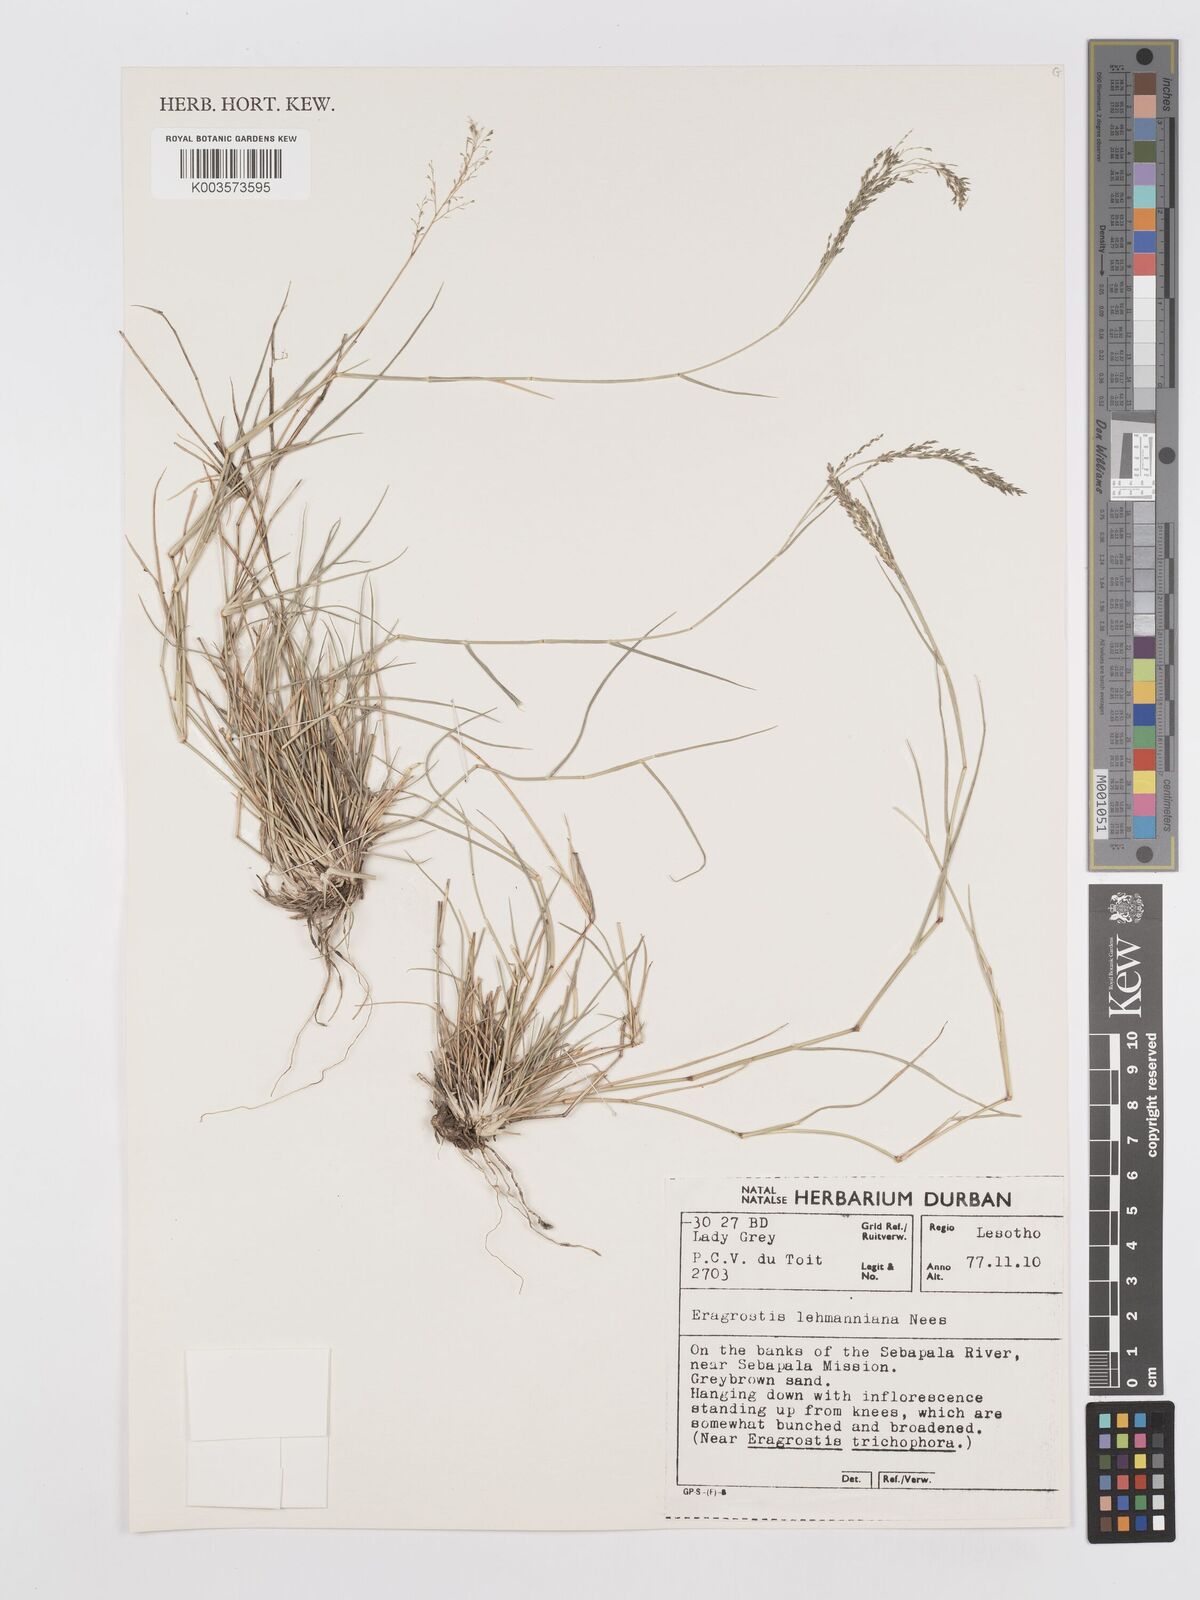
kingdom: Plantae
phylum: Tracheophyta
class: Liliopsida
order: Poales
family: Poaceae
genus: Eragrostis
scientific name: Eragrostis lehmanniana
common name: Lehmann lovegrass
